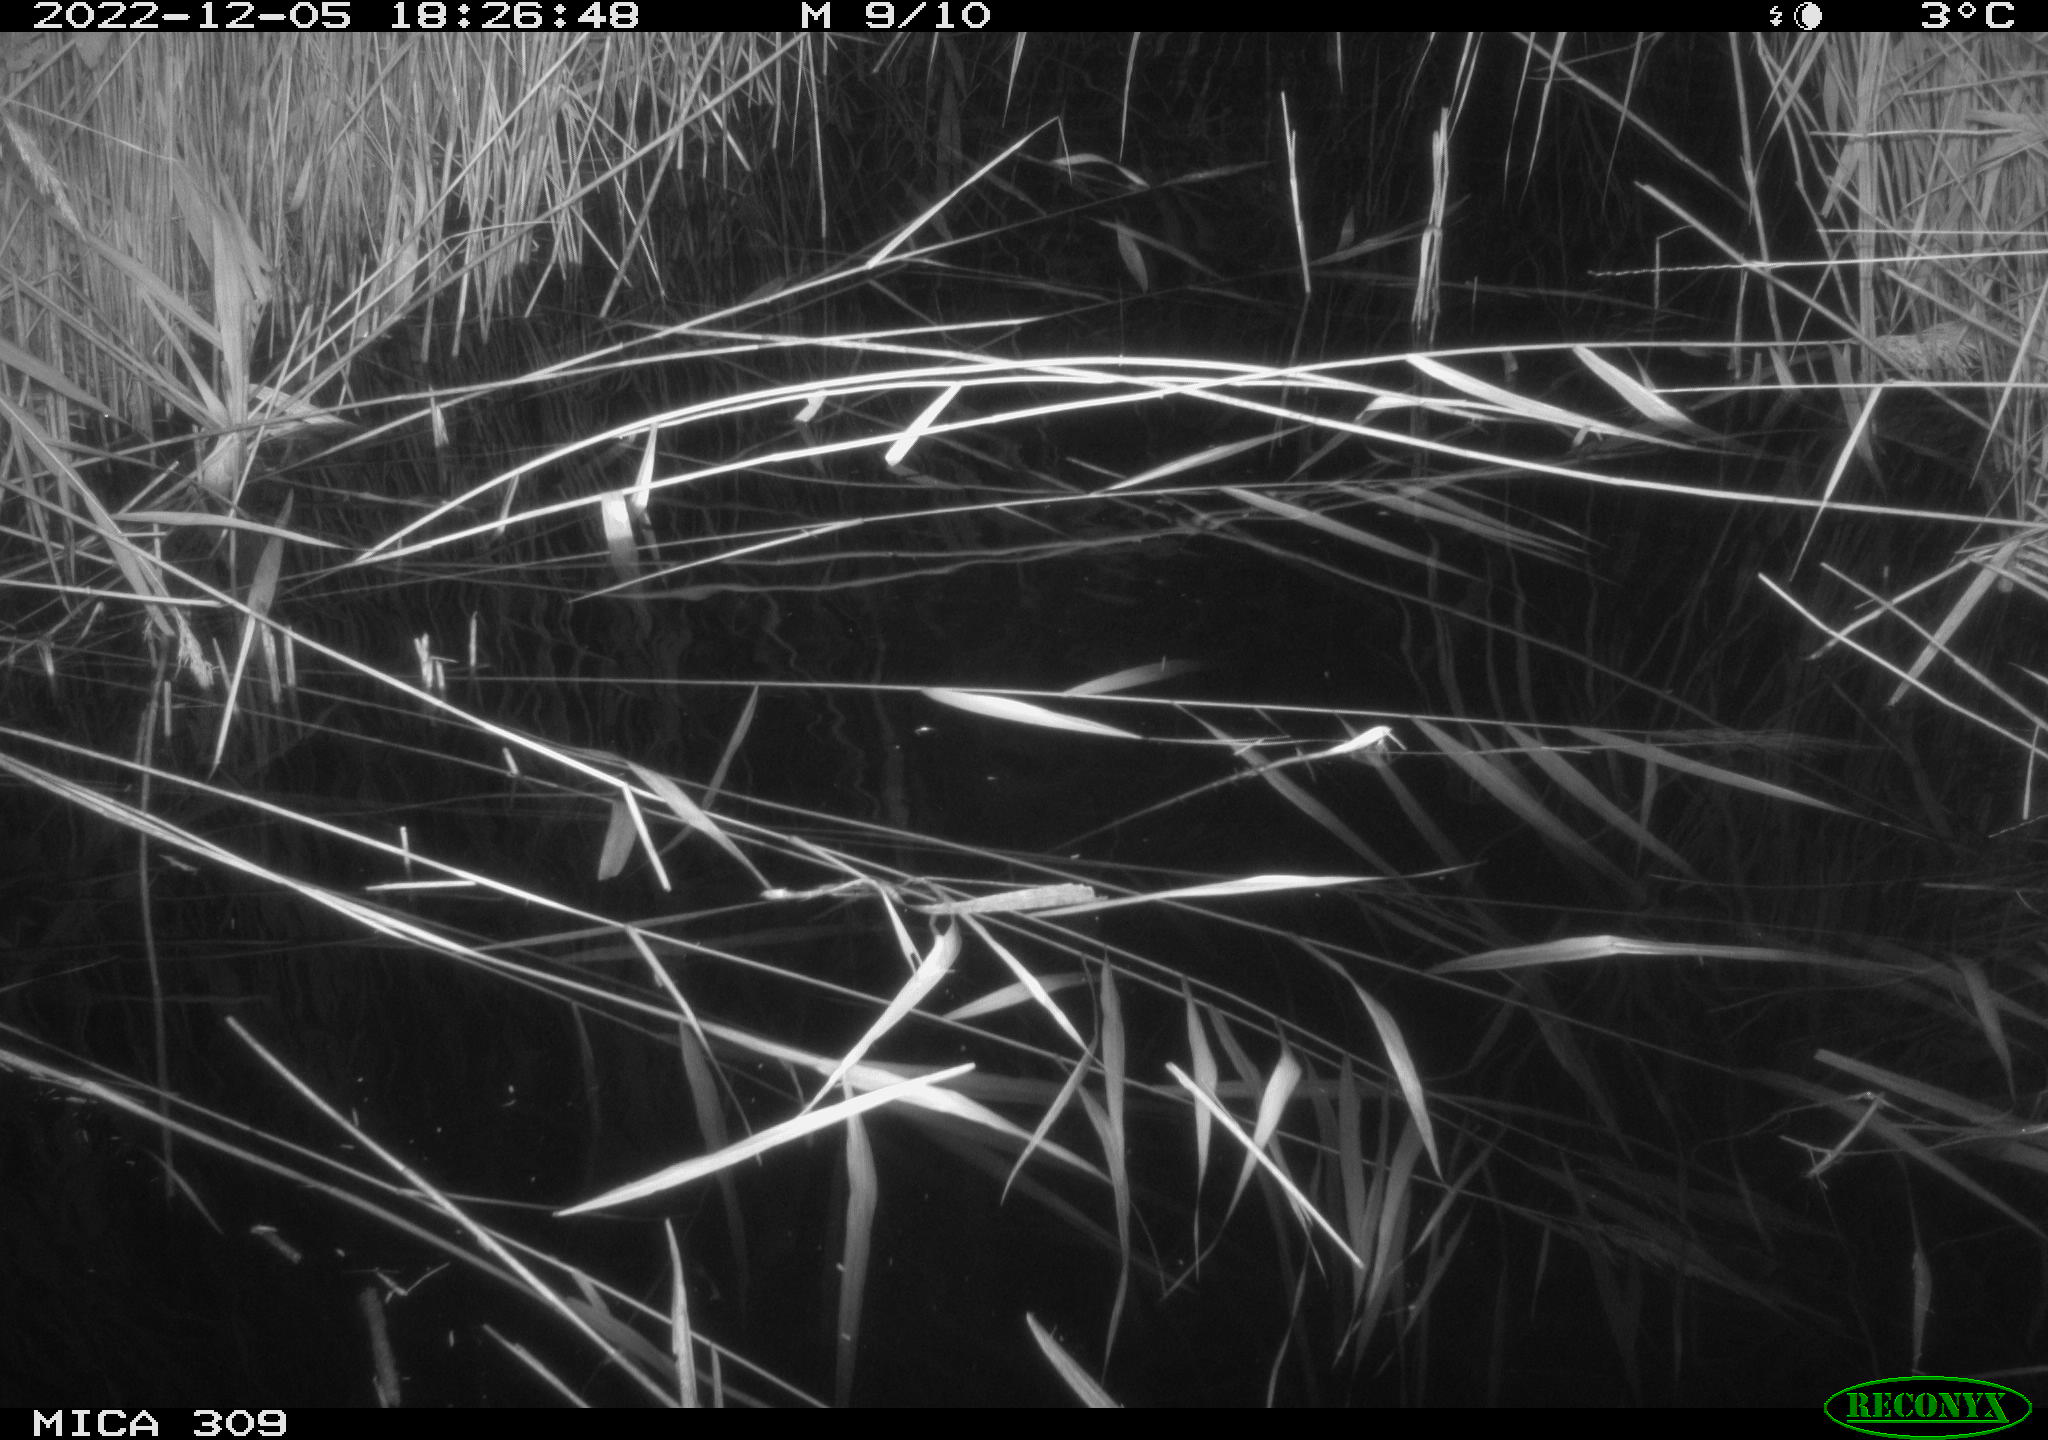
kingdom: Animalia
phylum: Chordata
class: Mammalia
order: Rodentia
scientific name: Rodentia
